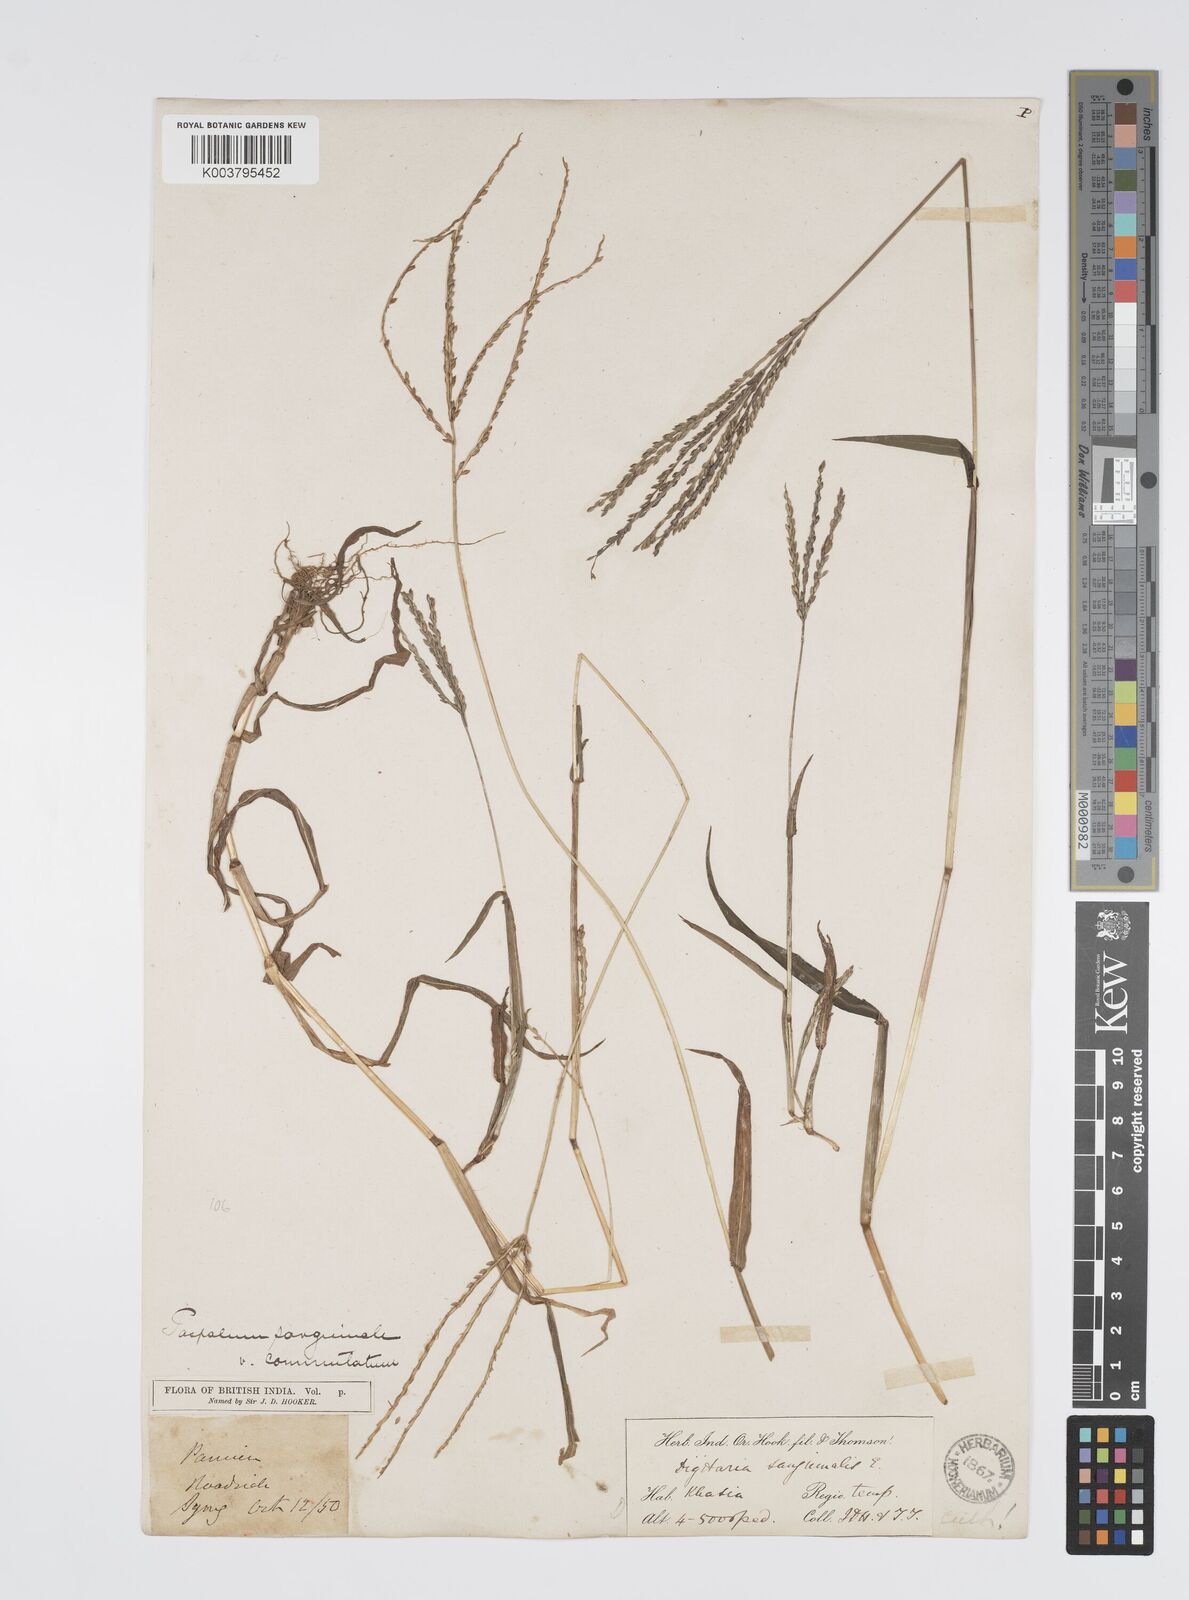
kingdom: Plantae
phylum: Tracheophyta
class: Liliopsida
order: Poales
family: Poaceae
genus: Digitaria
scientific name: Digitaria cruciata
